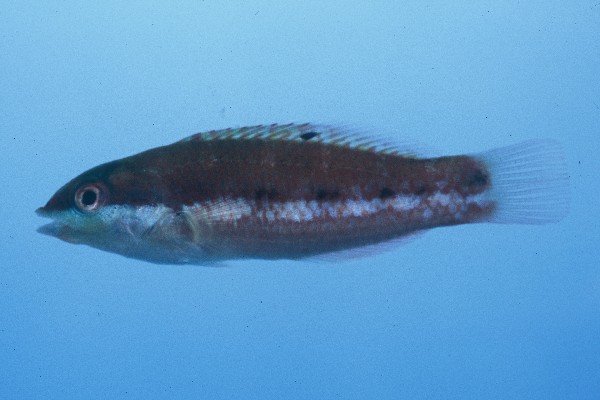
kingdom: Animalia
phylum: Chordata
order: Perciformes
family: Labridae
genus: Thalassoma
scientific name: Thalassoma
